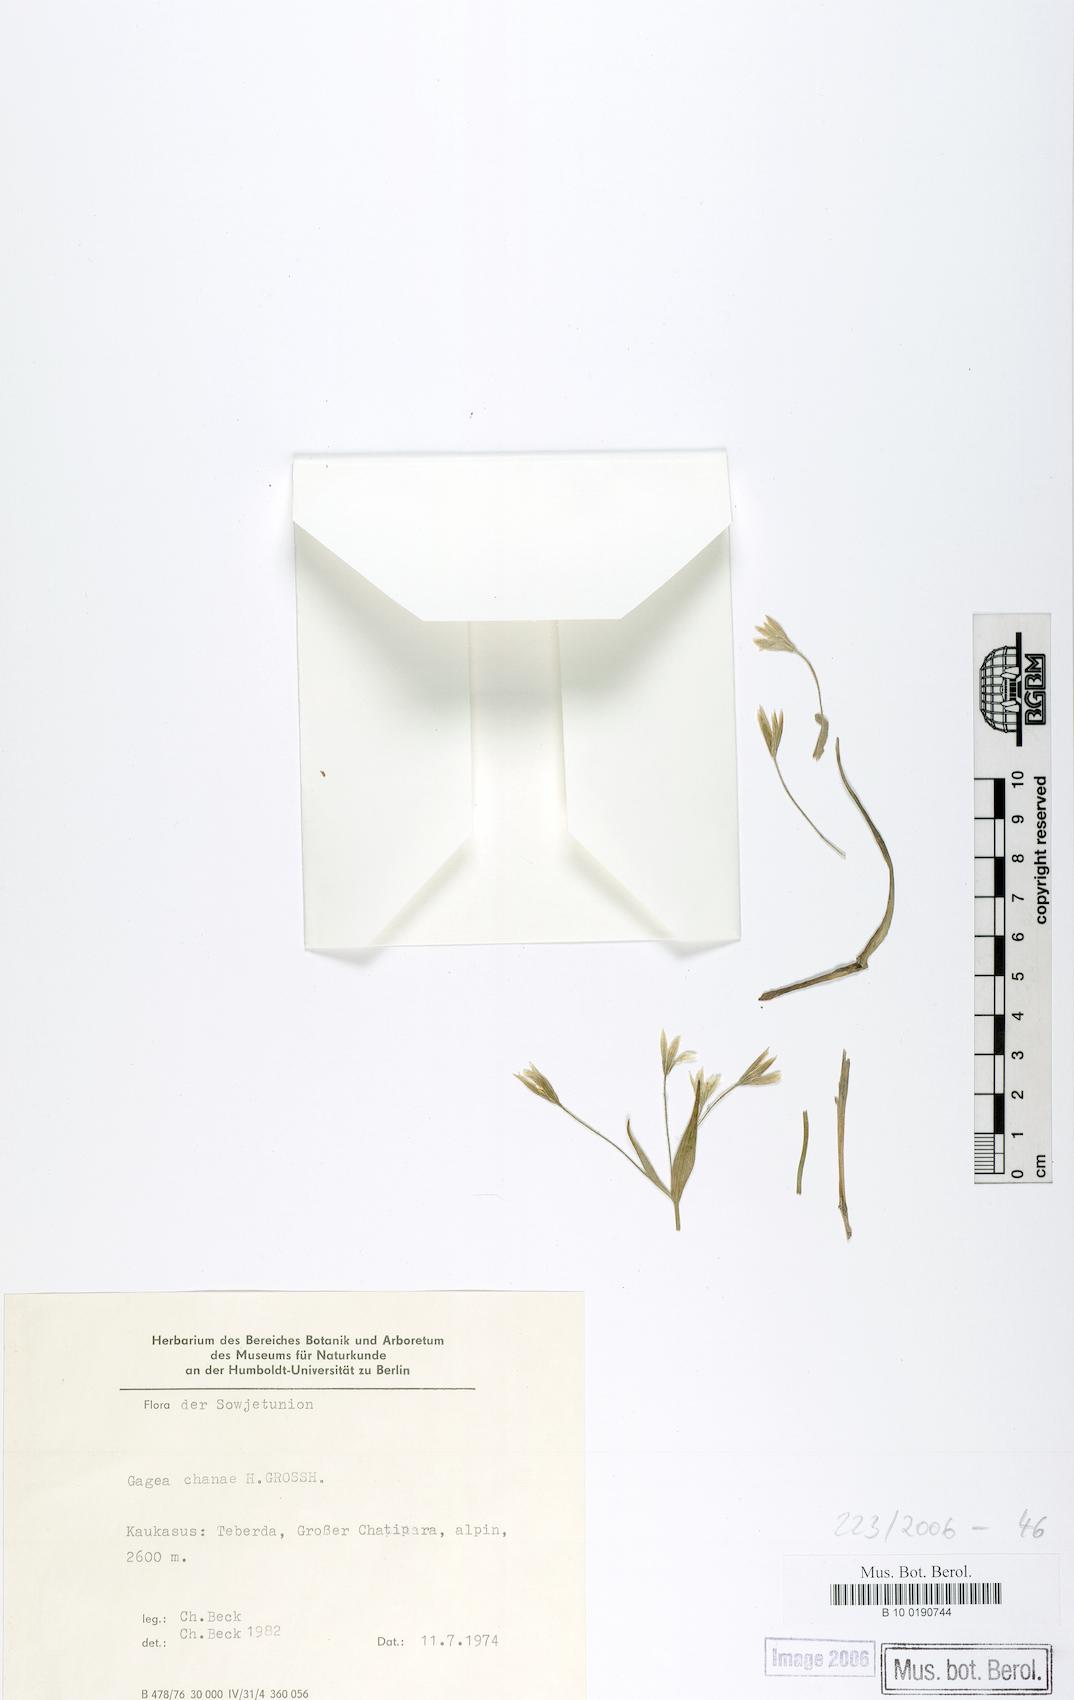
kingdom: Plantae
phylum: Tracheophyta
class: Liliopsida
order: Liliales
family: Liliaceae
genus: Gagea
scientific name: Gagea chanae
